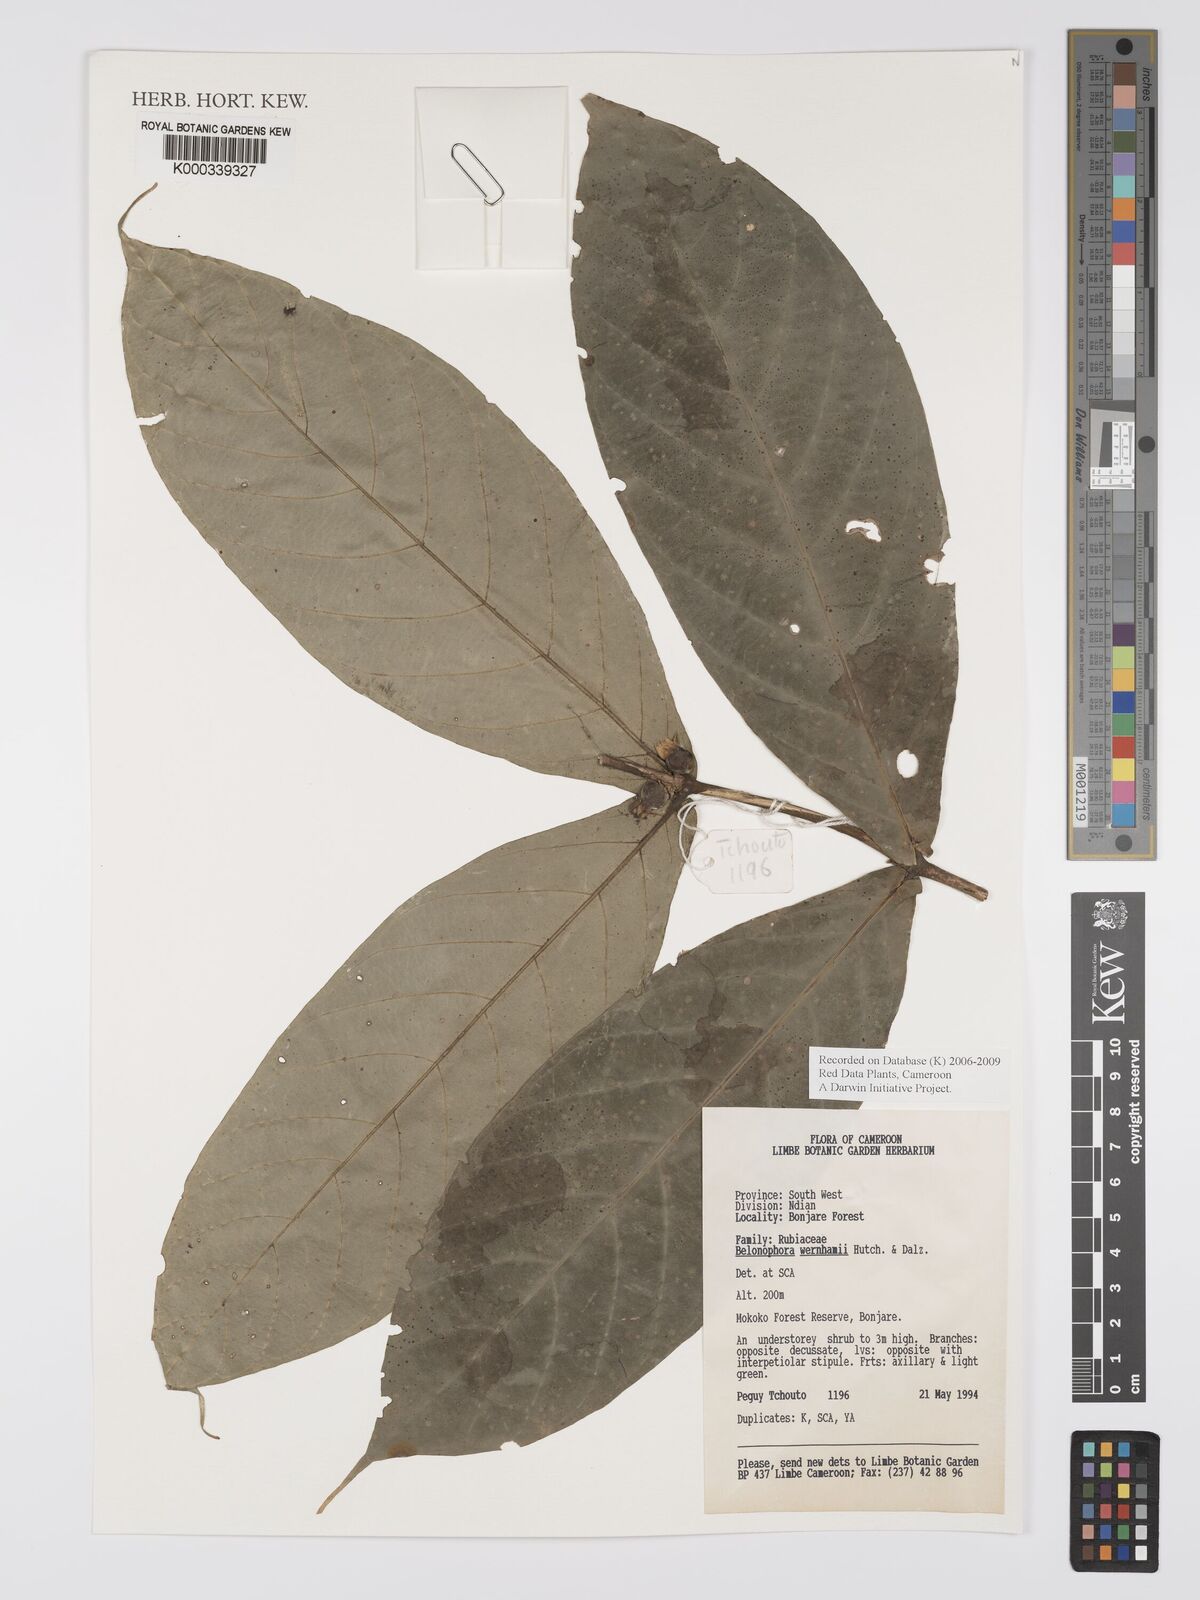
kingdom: Plantae
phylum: Tracheophyta
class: Magnoliopsida
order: Gentianales
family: Rubiaceae
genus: Belonophora
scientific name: Belonophora wernhamii
